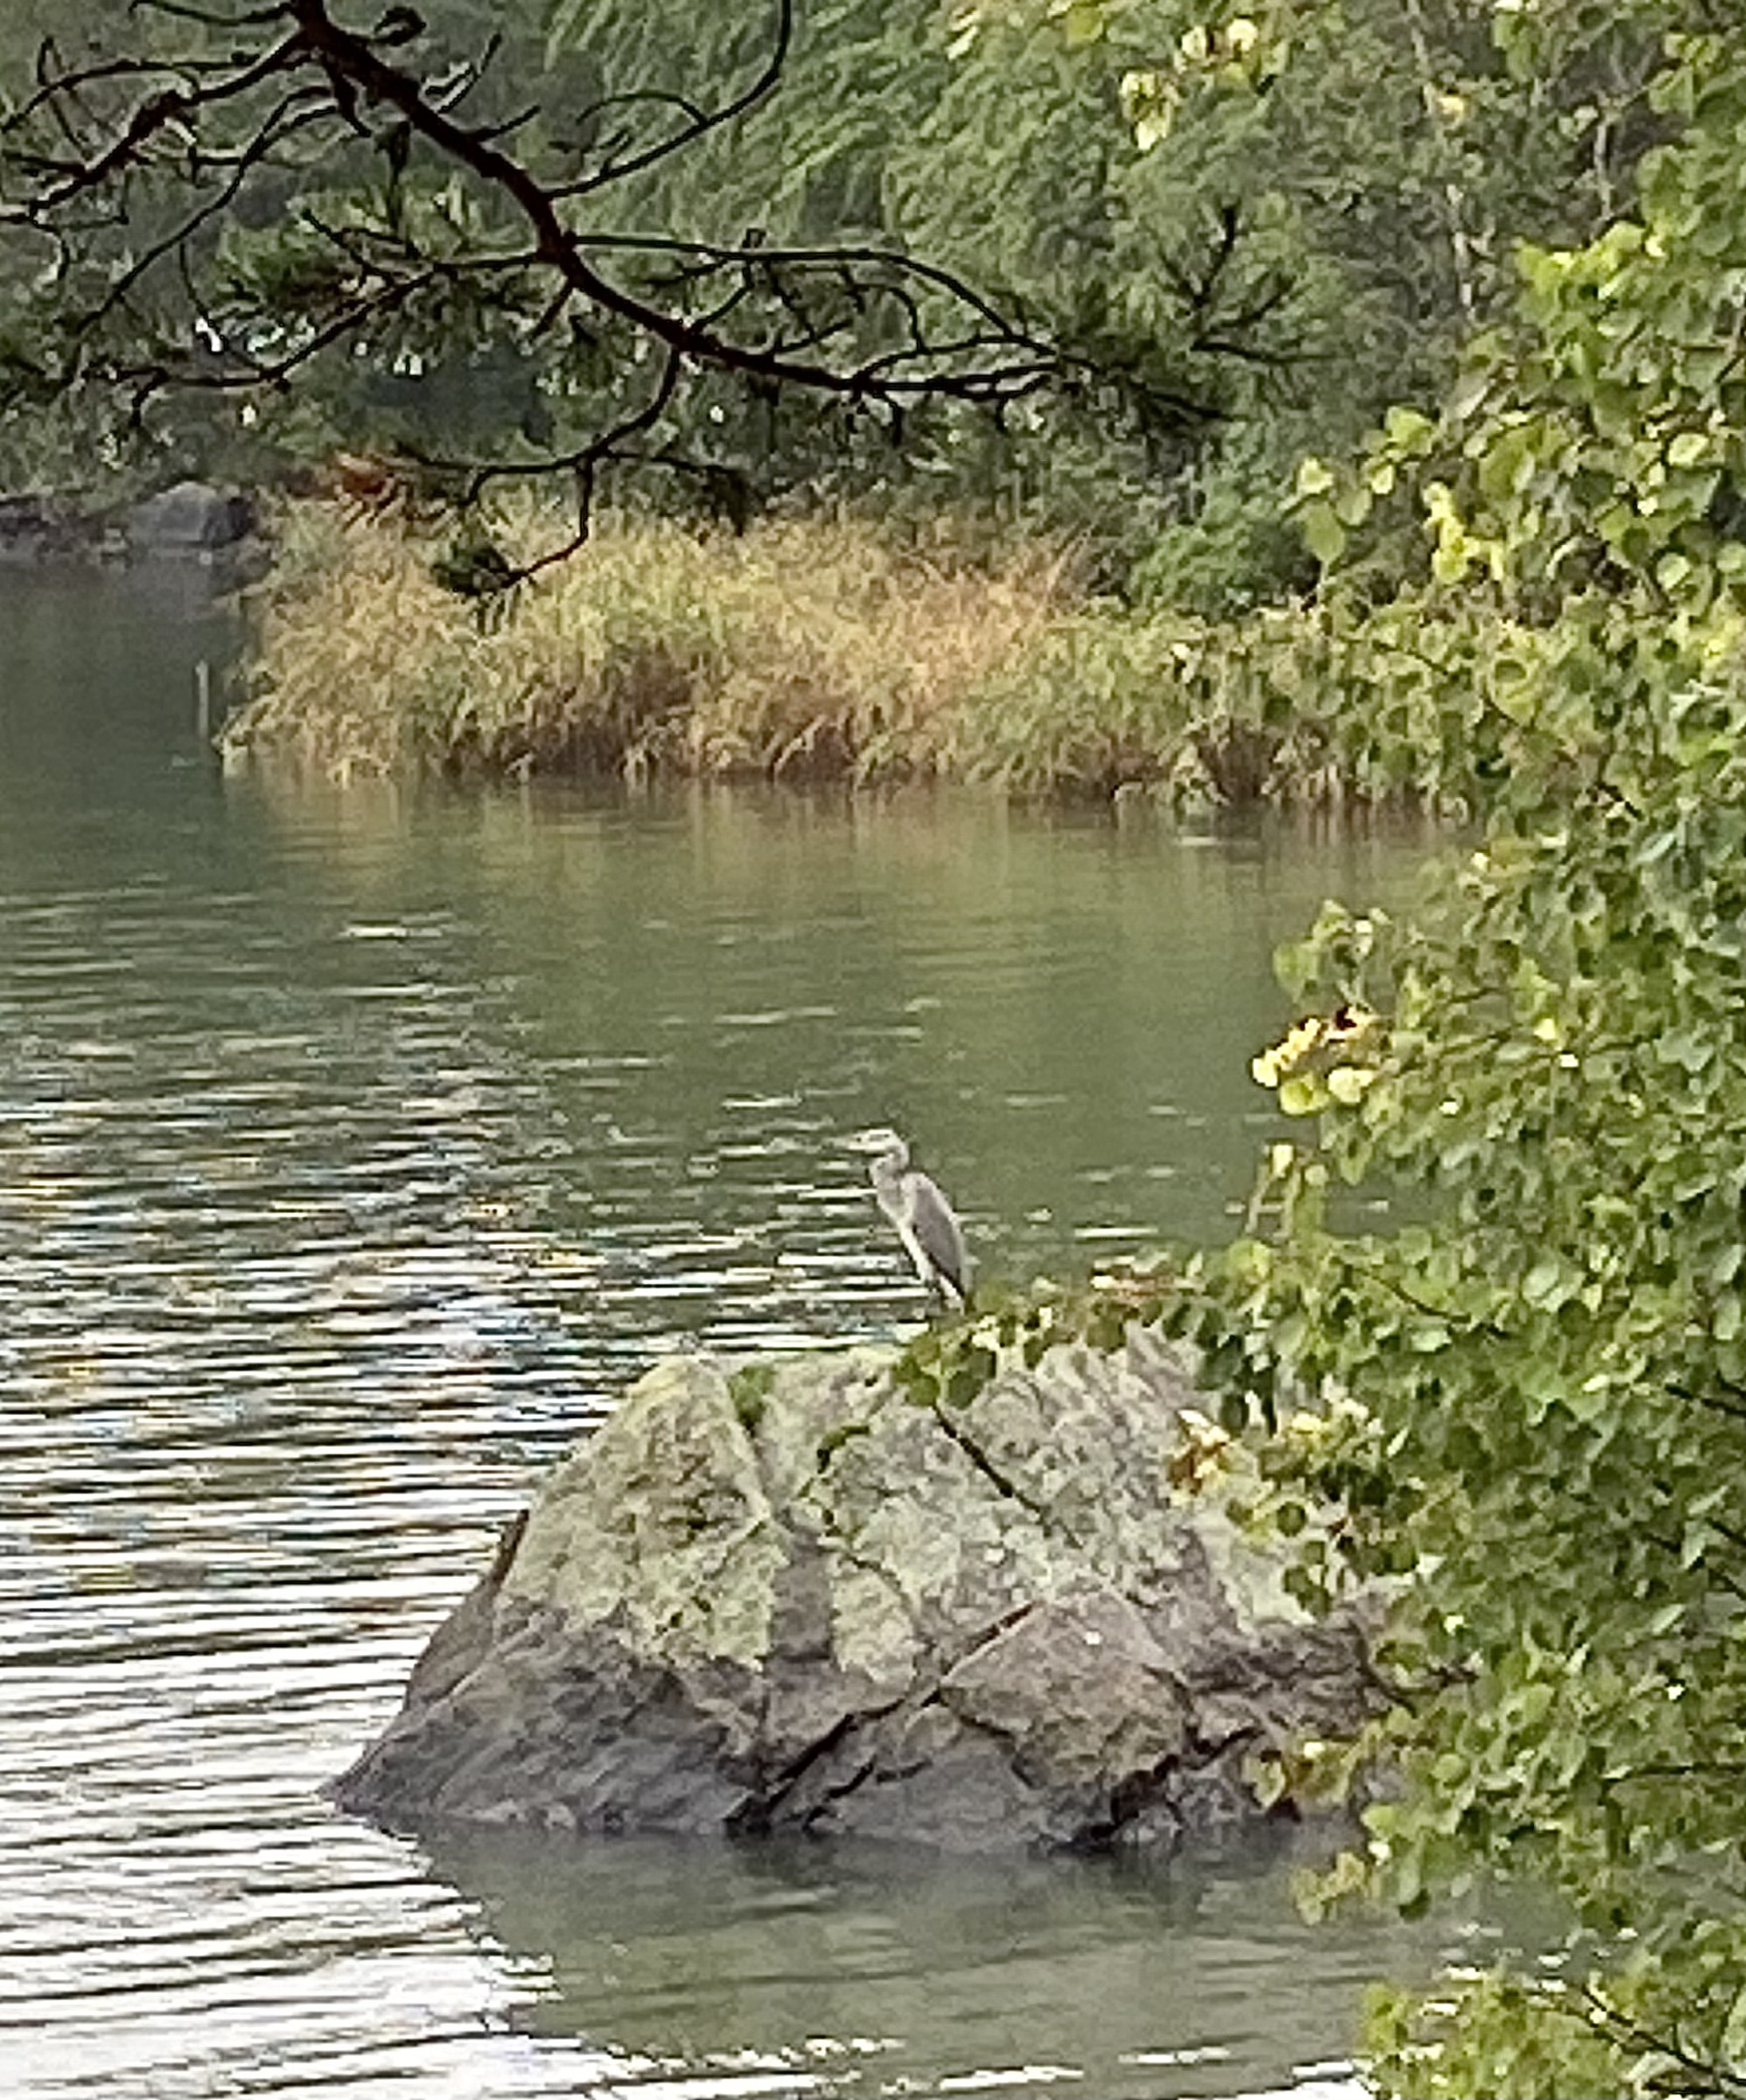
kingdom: Animalia
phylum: Chordata
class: Aves
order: Pelecaniformes
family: Ardeidae
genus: Ardea
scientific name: Ardea cinerea
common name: Grey heron
